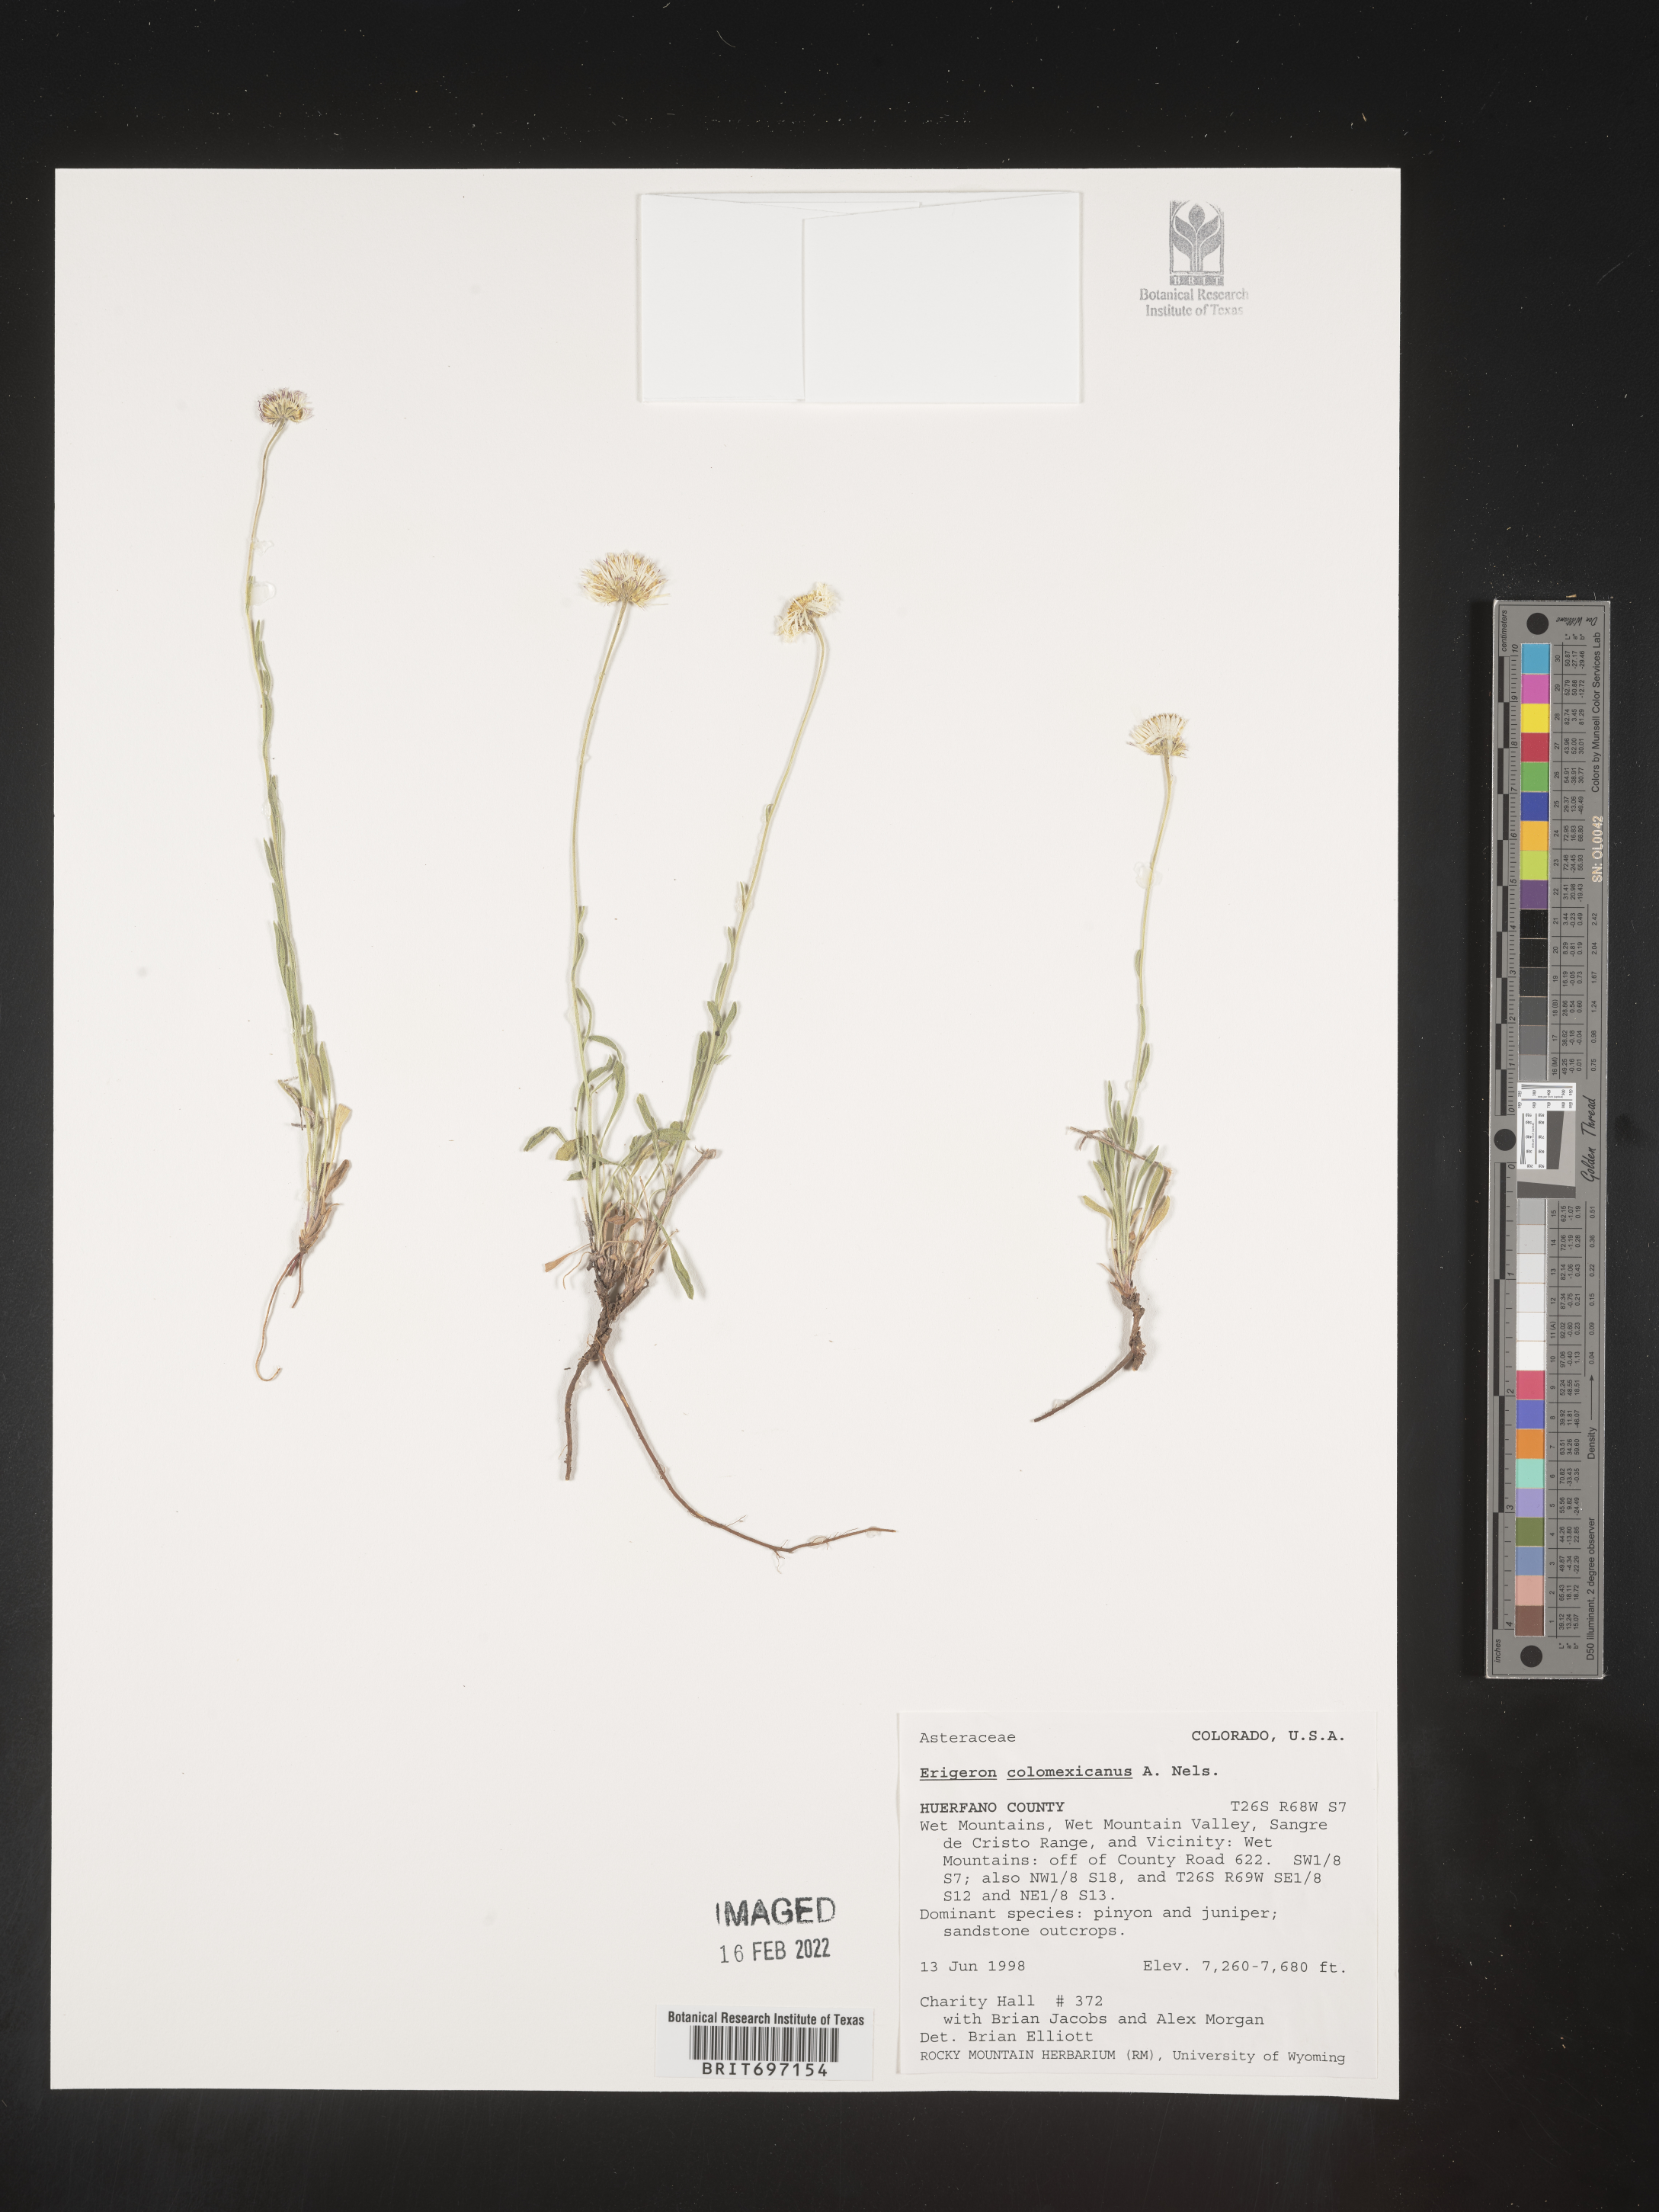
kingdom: Plantae
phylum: Tracheophyta
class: Magnoliopsida
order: Asterales
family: Asteraceae
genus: Erigeron
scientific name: Erigeron tracyi
